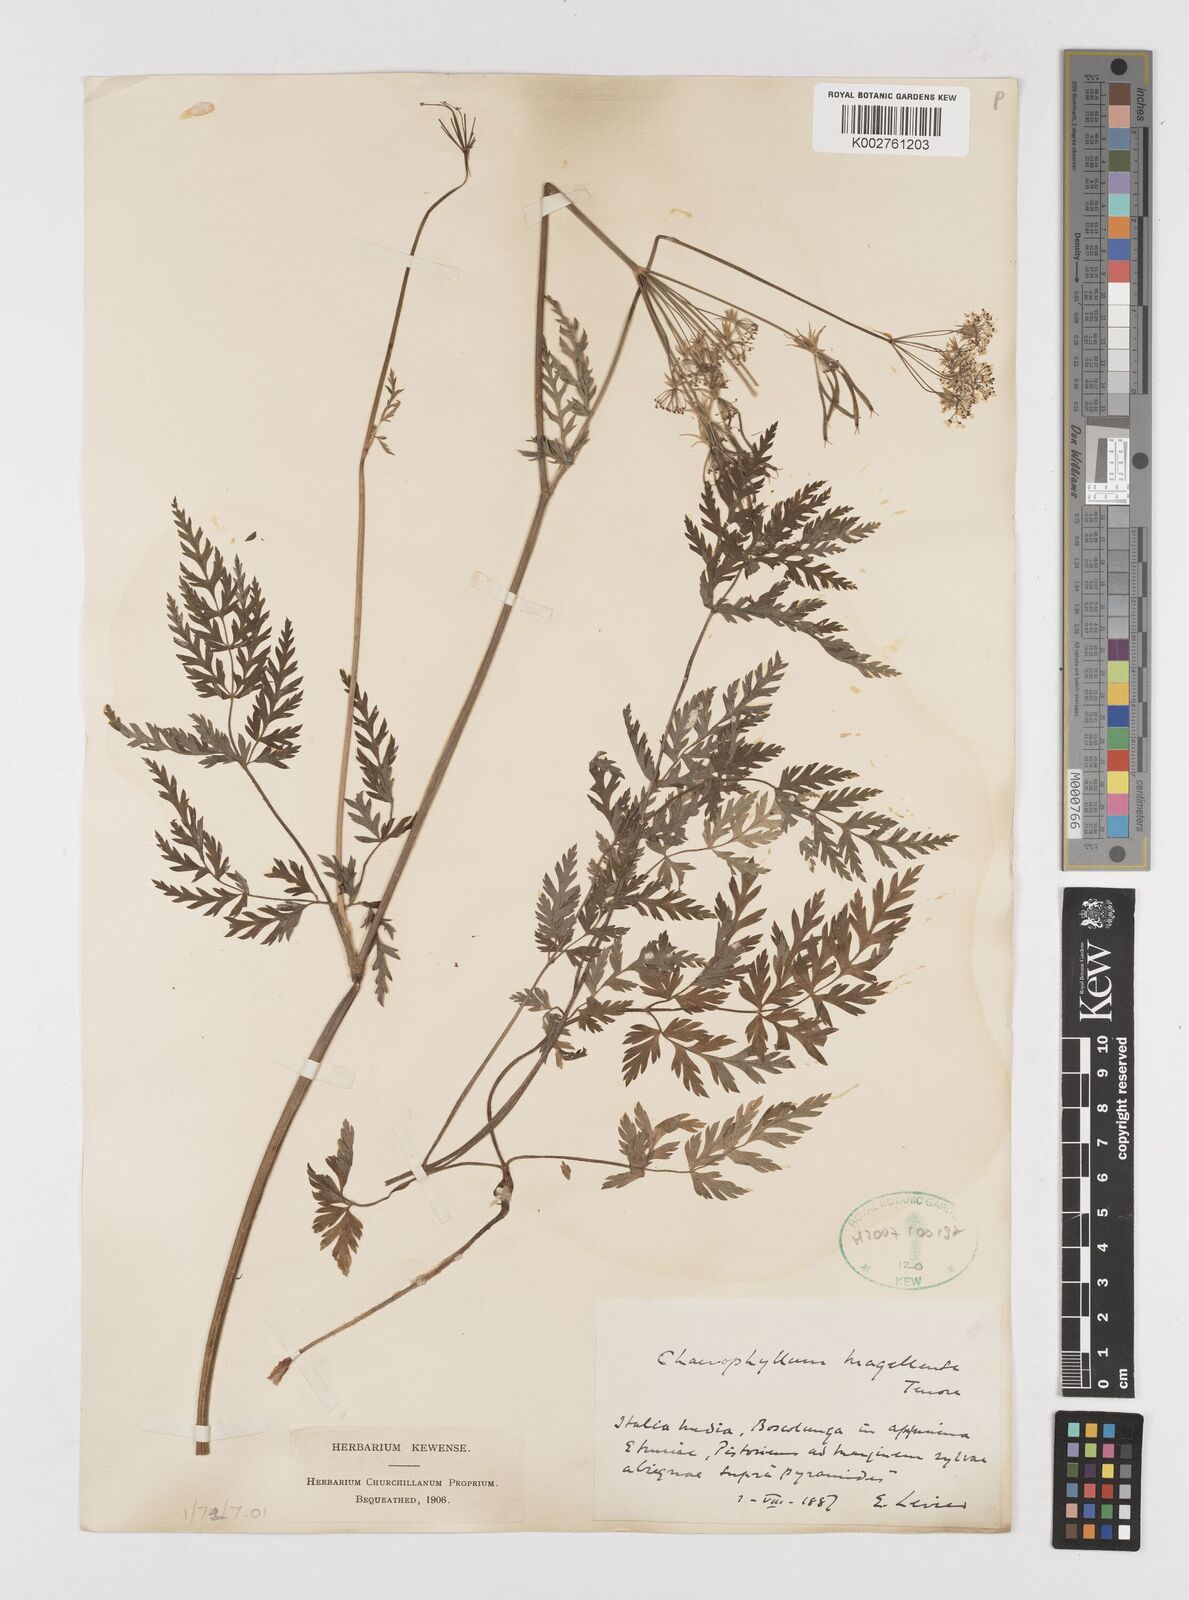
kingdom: Plantae
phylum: Tracheophyta
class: Magnoliopsida
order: Apiales
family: Apiaceae
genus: Chaerophyllum
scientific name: Chaerophyllum hirsutum
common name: Hairy chervil
